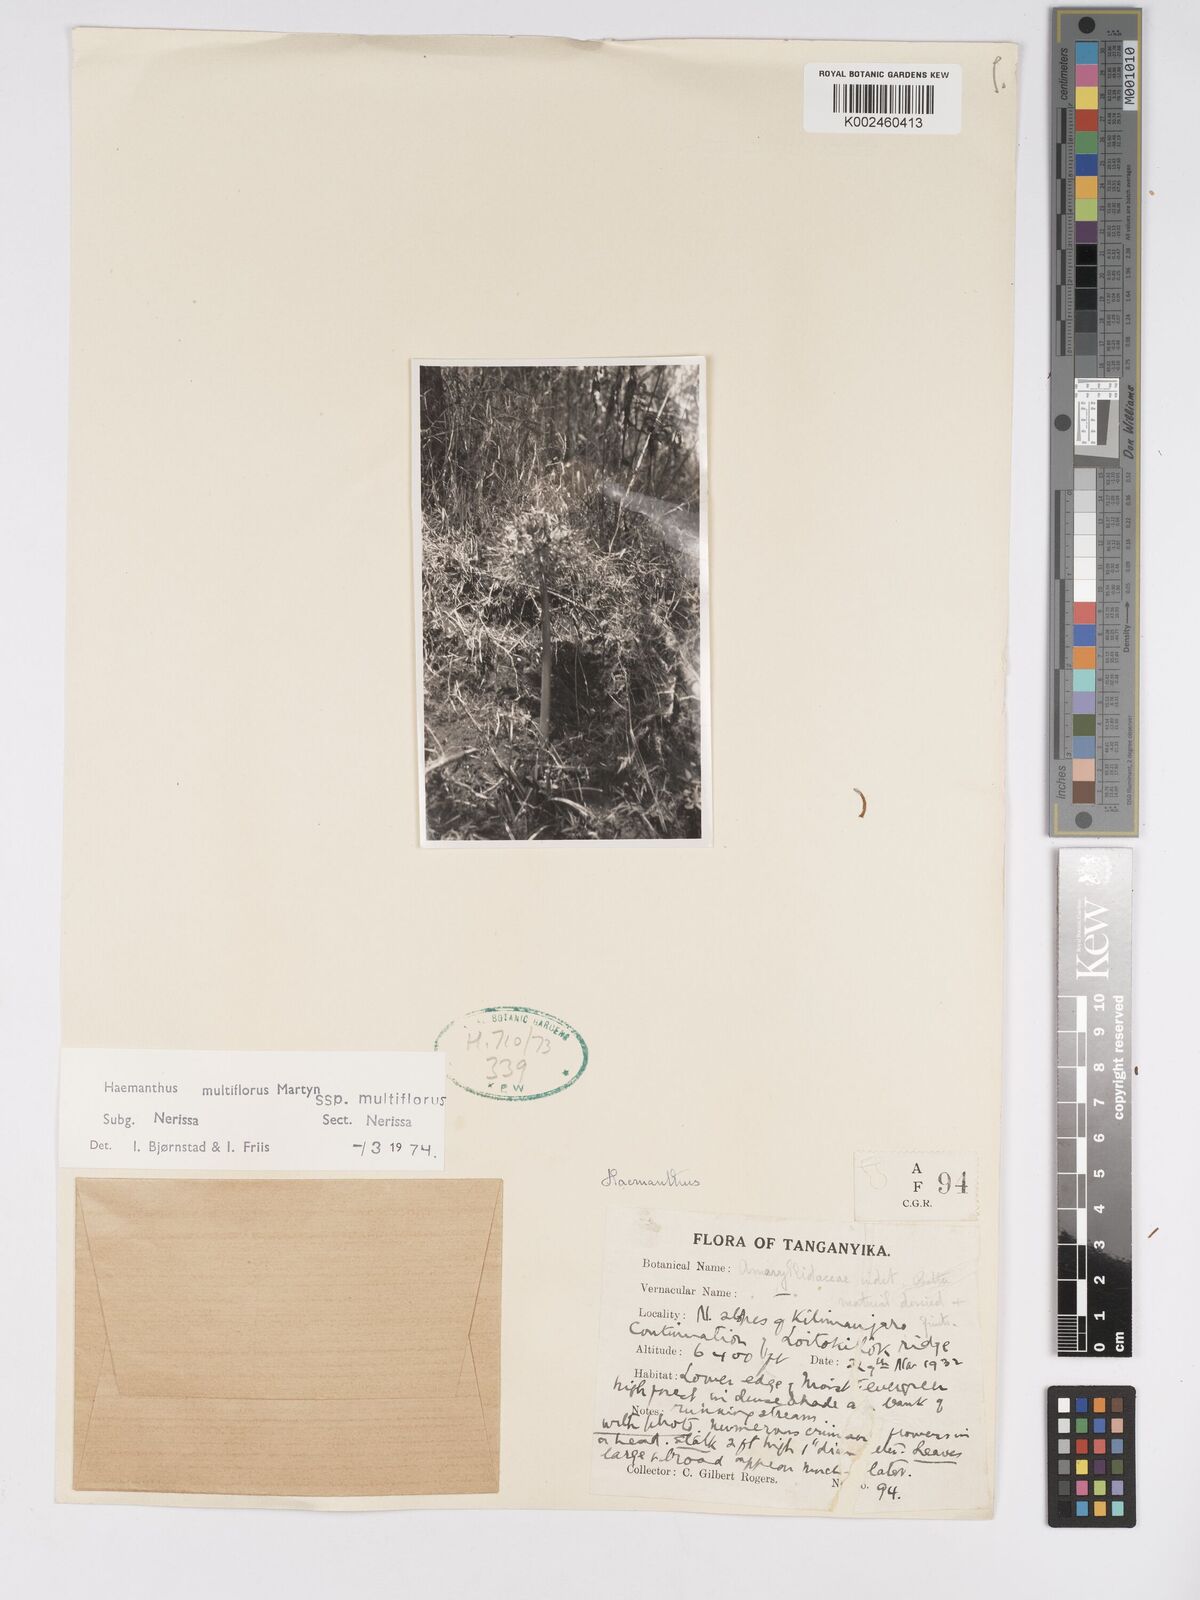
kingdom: Plantae
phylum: Tracheophyta
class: Liliopsida
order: Asparagales
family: Amaryllidaceae
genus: Scadoxus
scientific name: Scadoxus multiflorus
